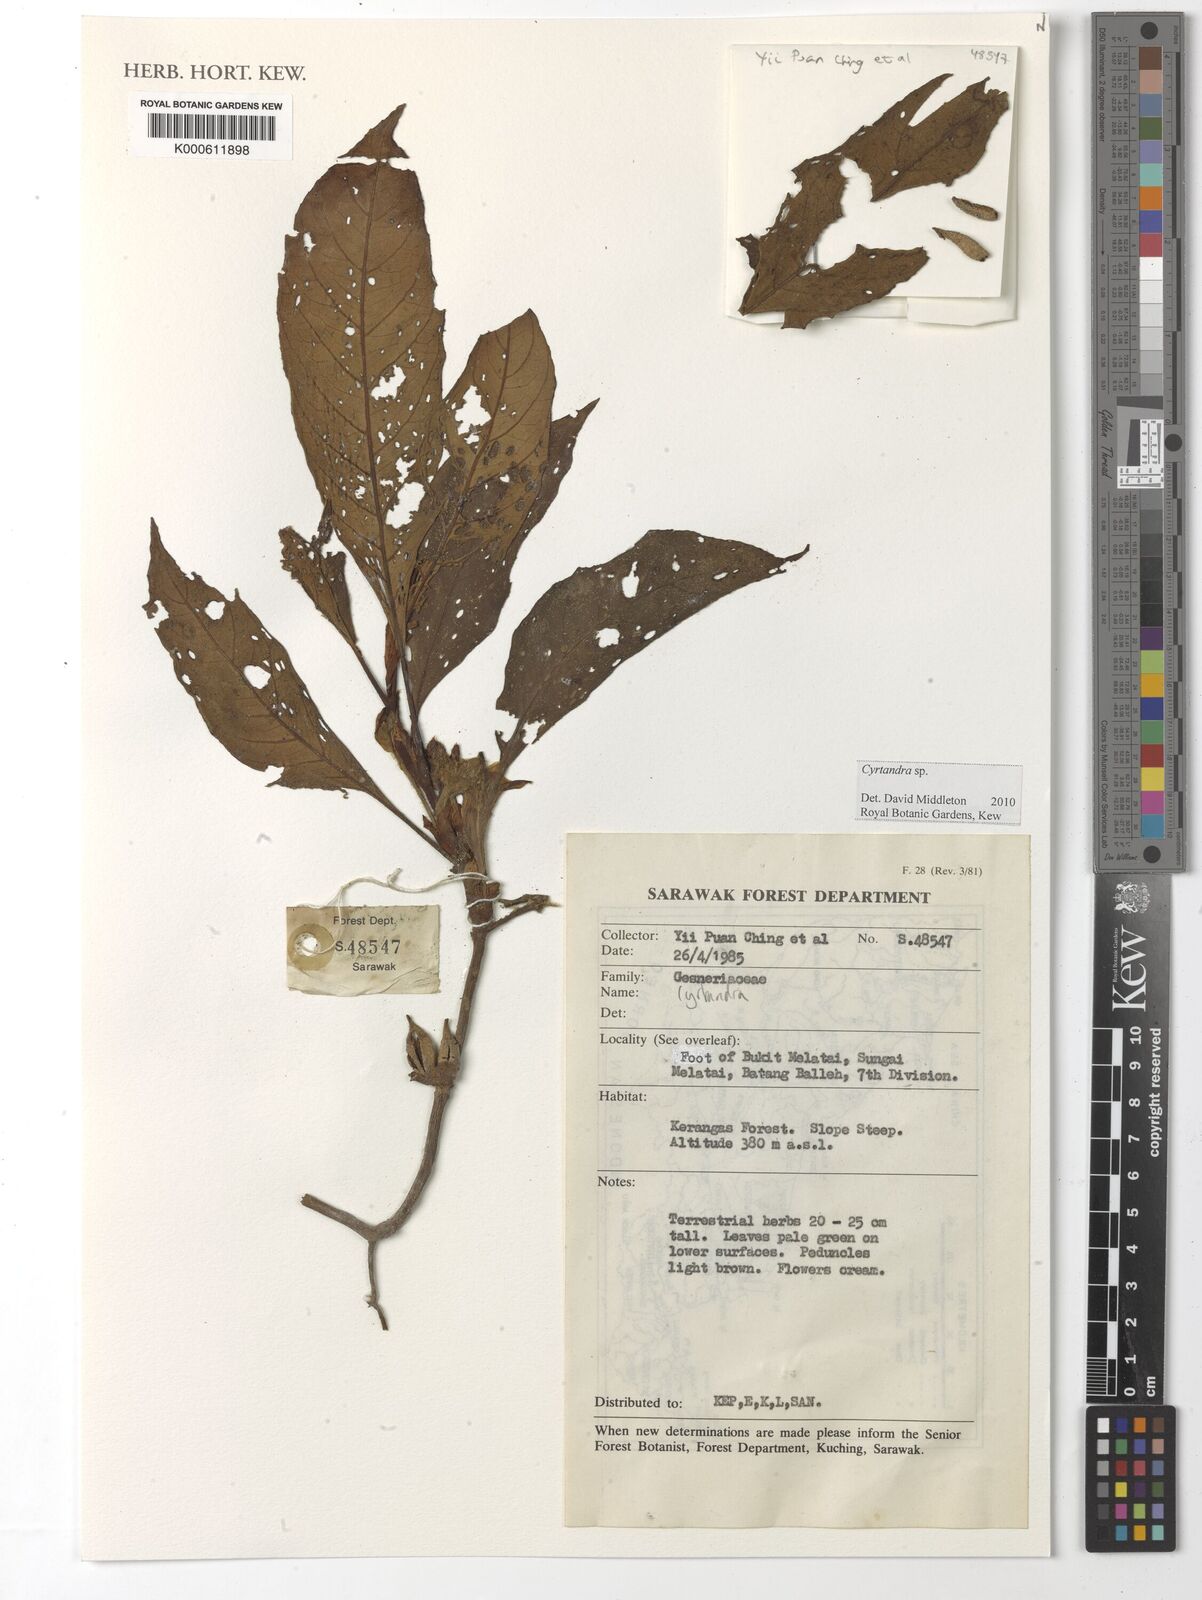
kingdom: Plantae
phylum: Tracheophyta
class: Magnoliopsida
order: Lamiales
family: Gesneriaceae
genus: Cyrtandra
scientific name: Cyrtandra
